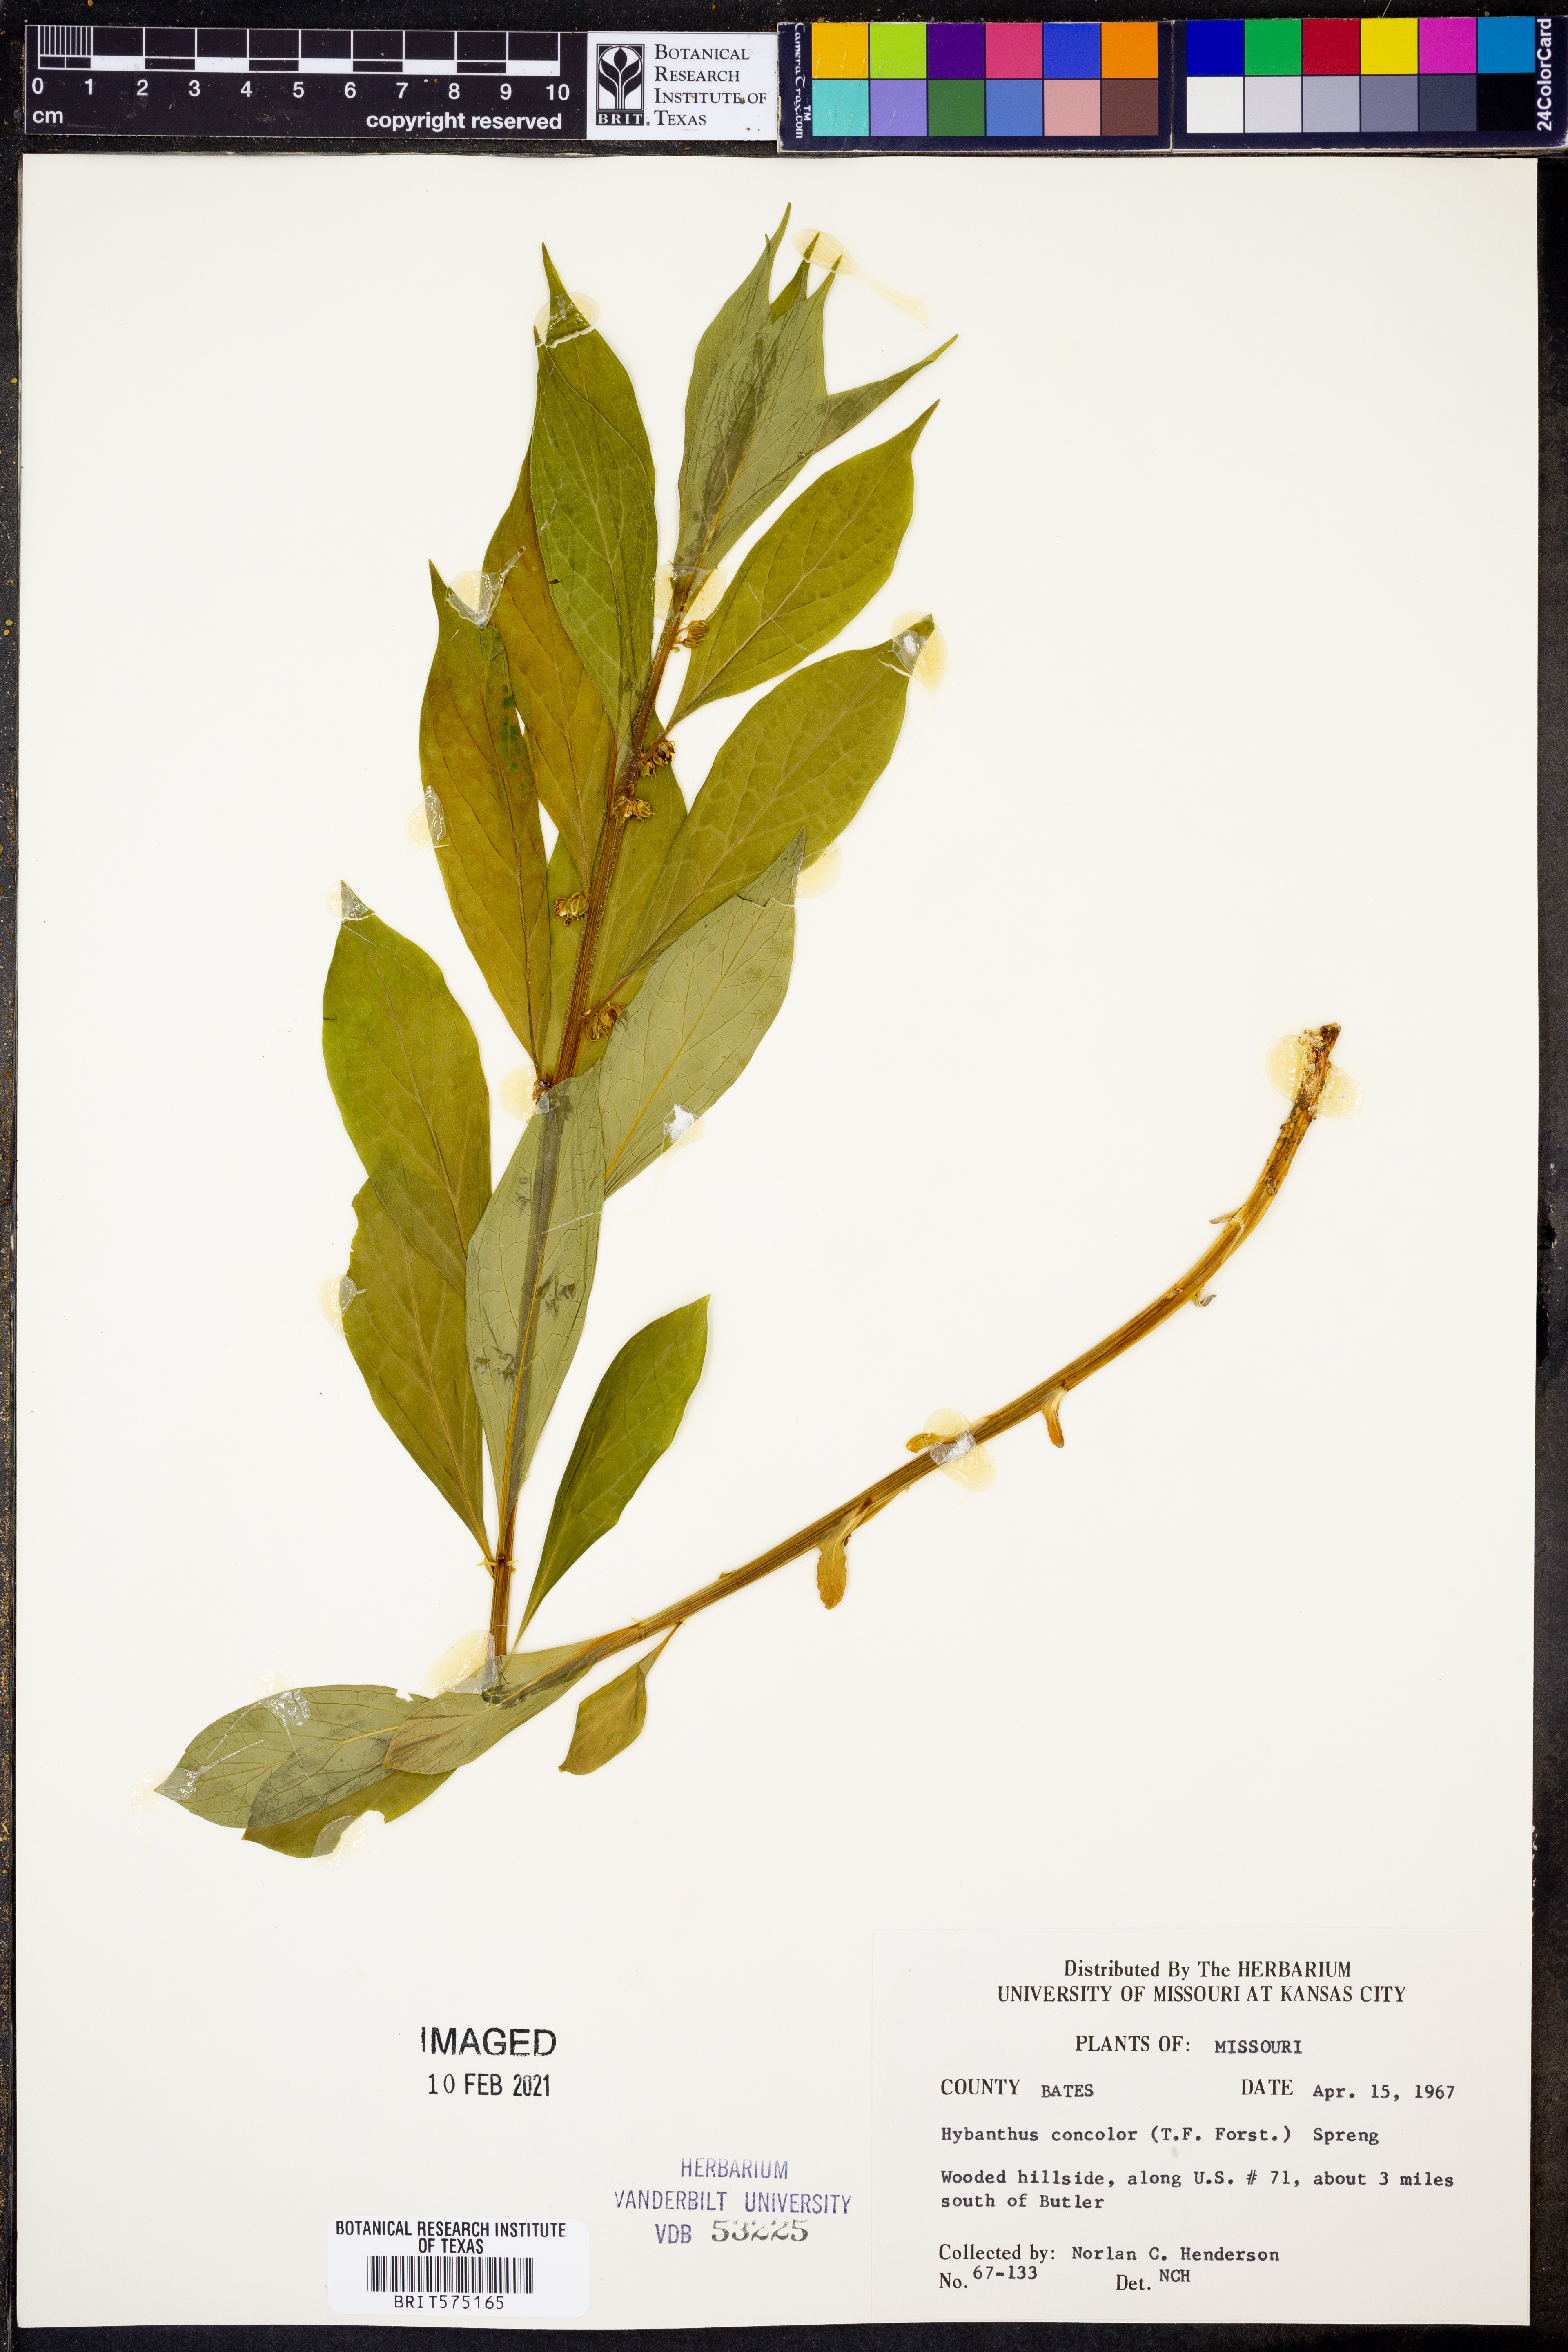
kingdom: Plantae
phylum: Tracheophyta
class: Magnoliopsida
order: Malpighiales
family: Violaceae
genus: Cubelium
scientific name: Cubelium concolor
